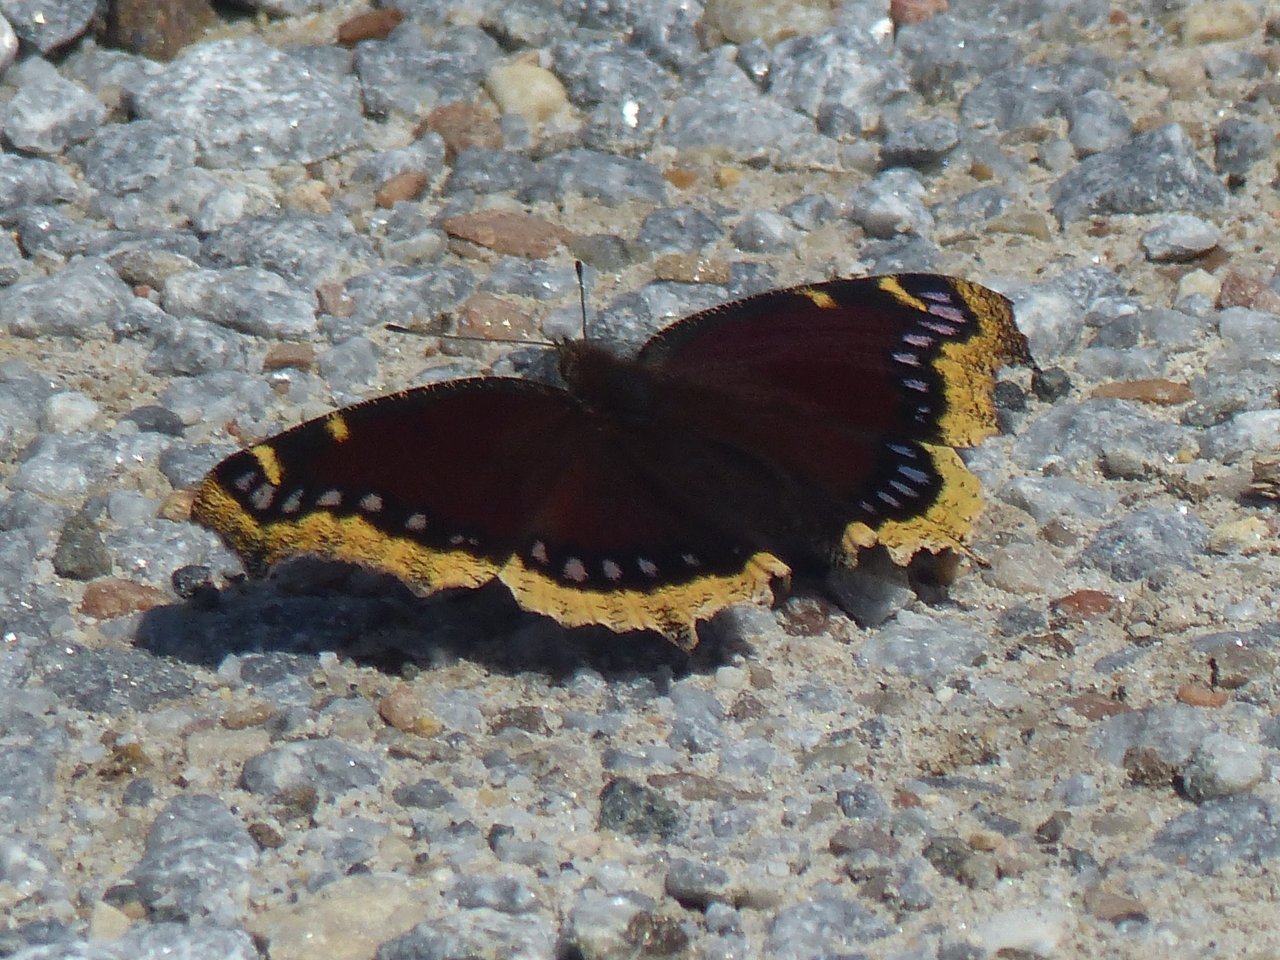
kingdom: Animalia
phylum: Arthropoda
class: Insecta
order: Lepidoptera
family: Nymphalidae
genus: Nymphalis
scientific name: Nymphalis antiopa
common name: Mourning Cloak
